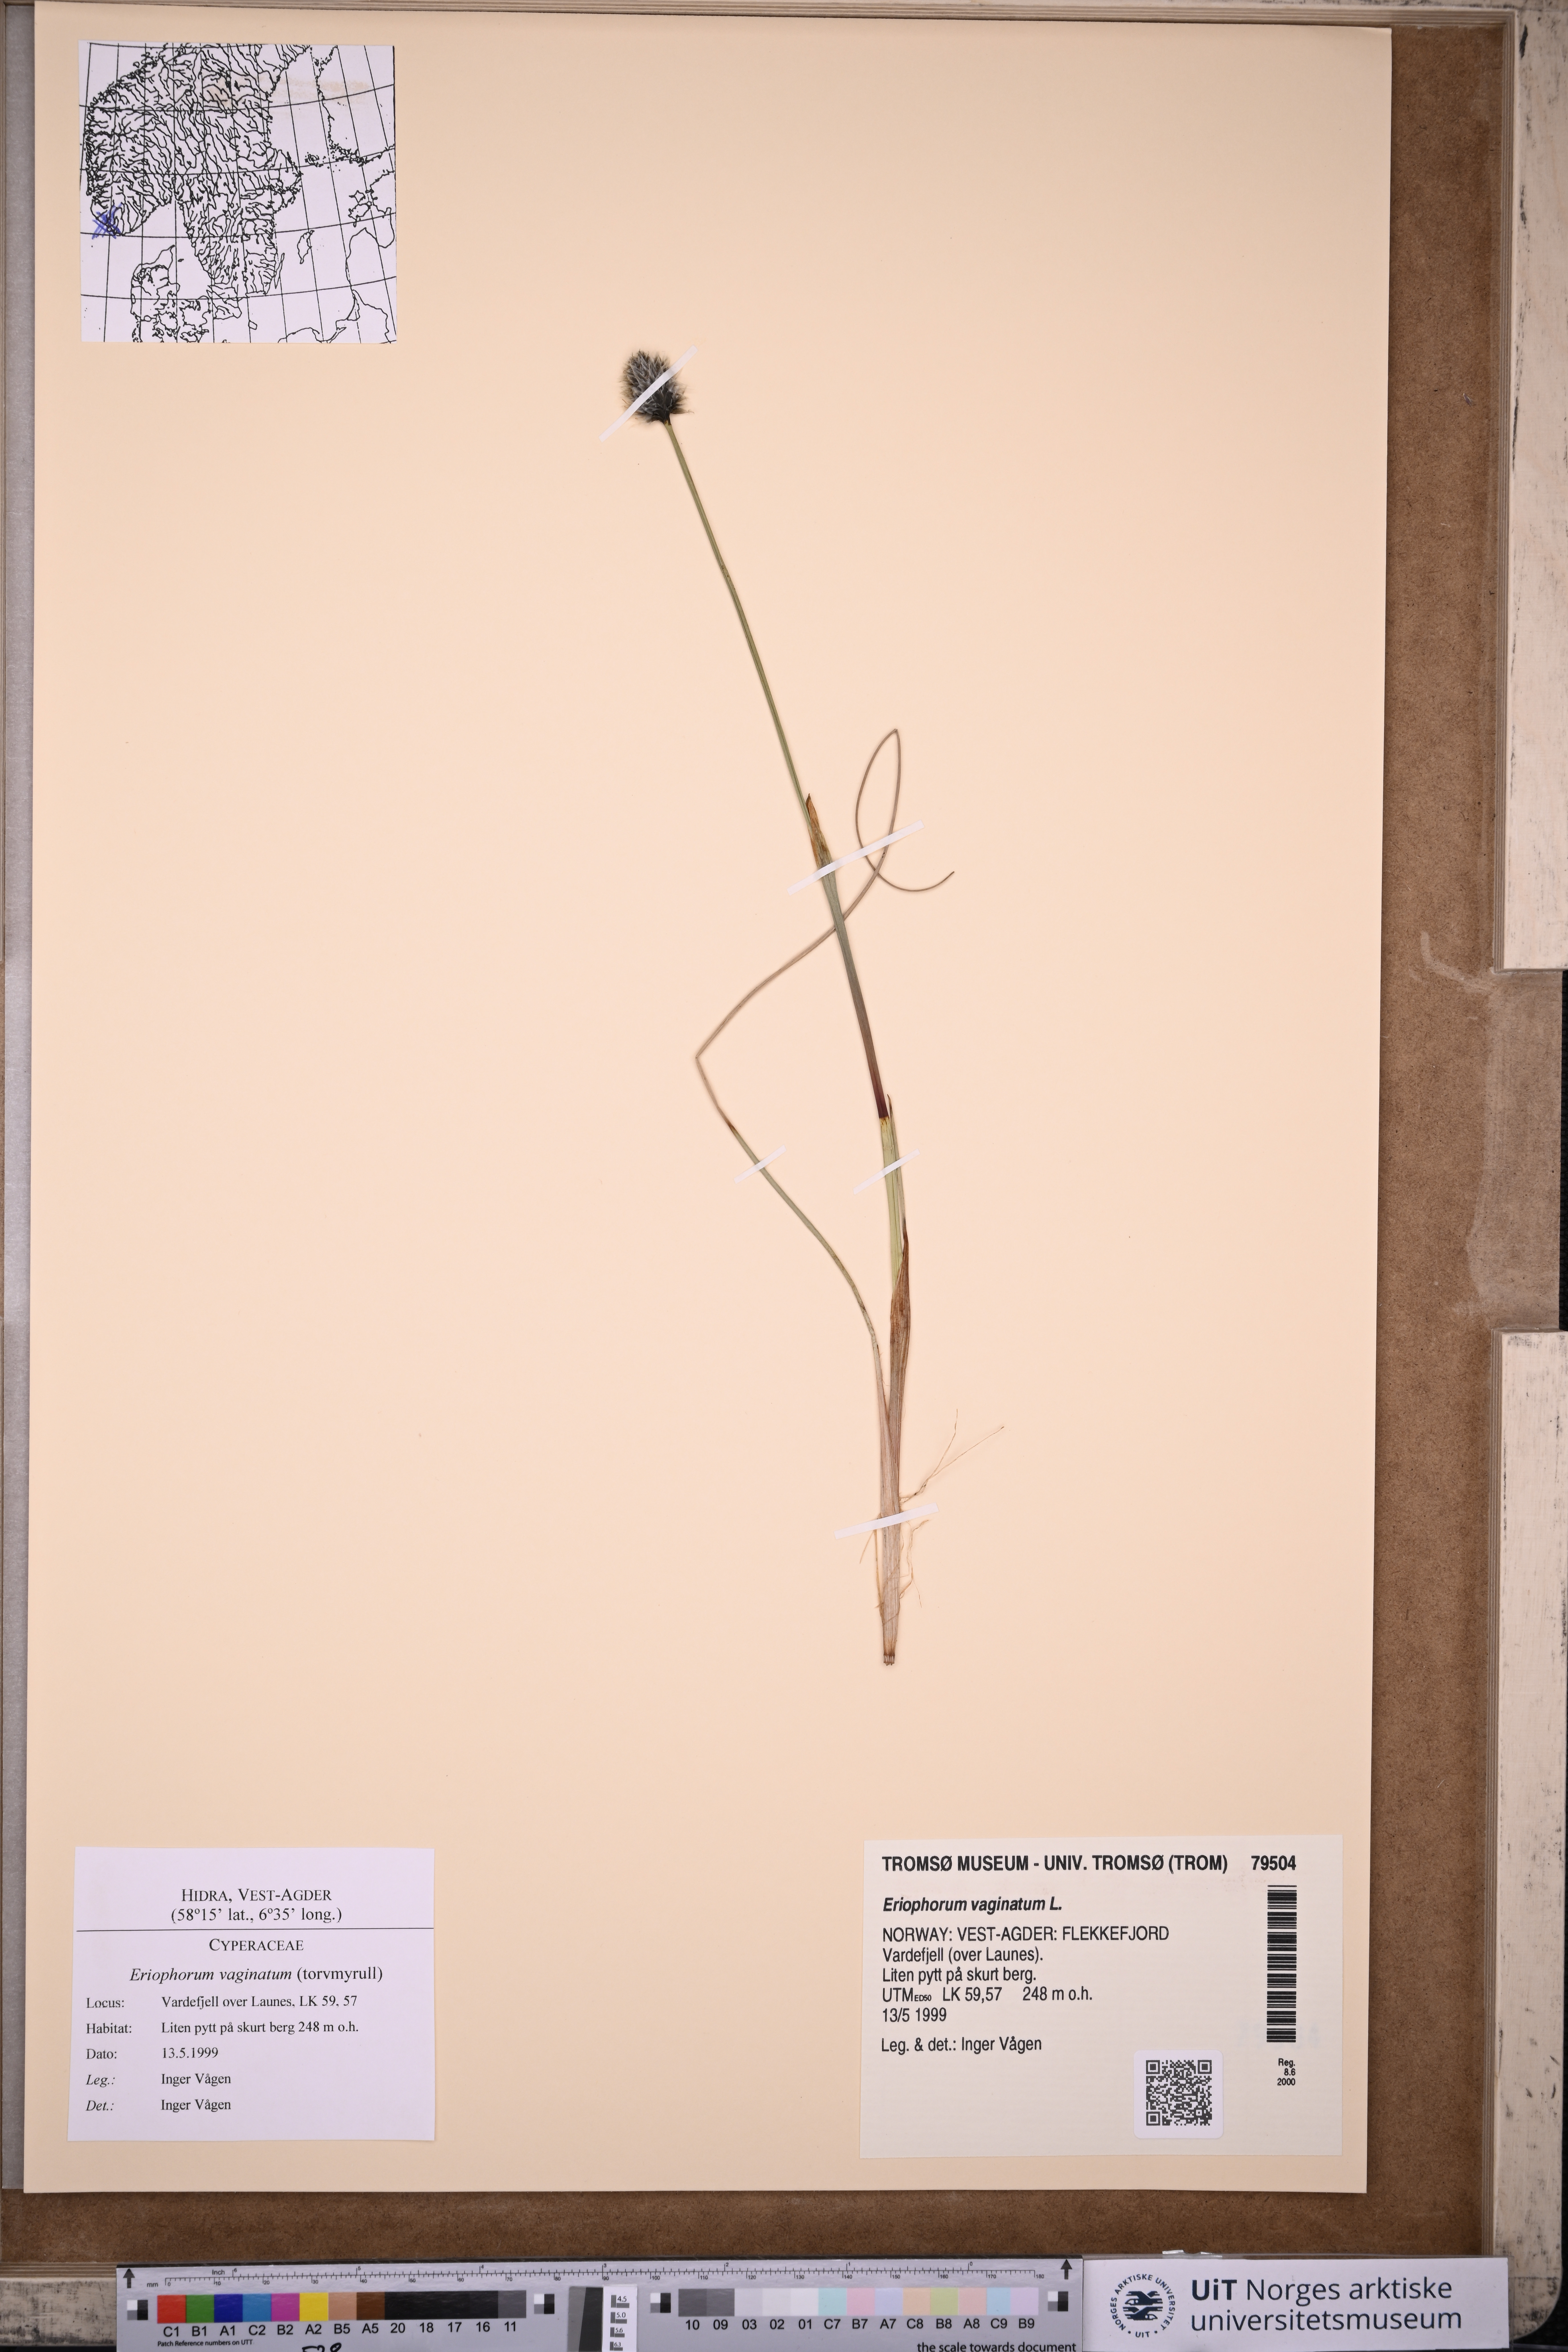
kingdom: Plantae
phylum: Tracheophyta
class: Liliopsida
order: Poales
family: Cyperaceae
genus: Eriophorum
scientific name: Eriophorum vaginatum
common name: Hare's-tail cottongrass
